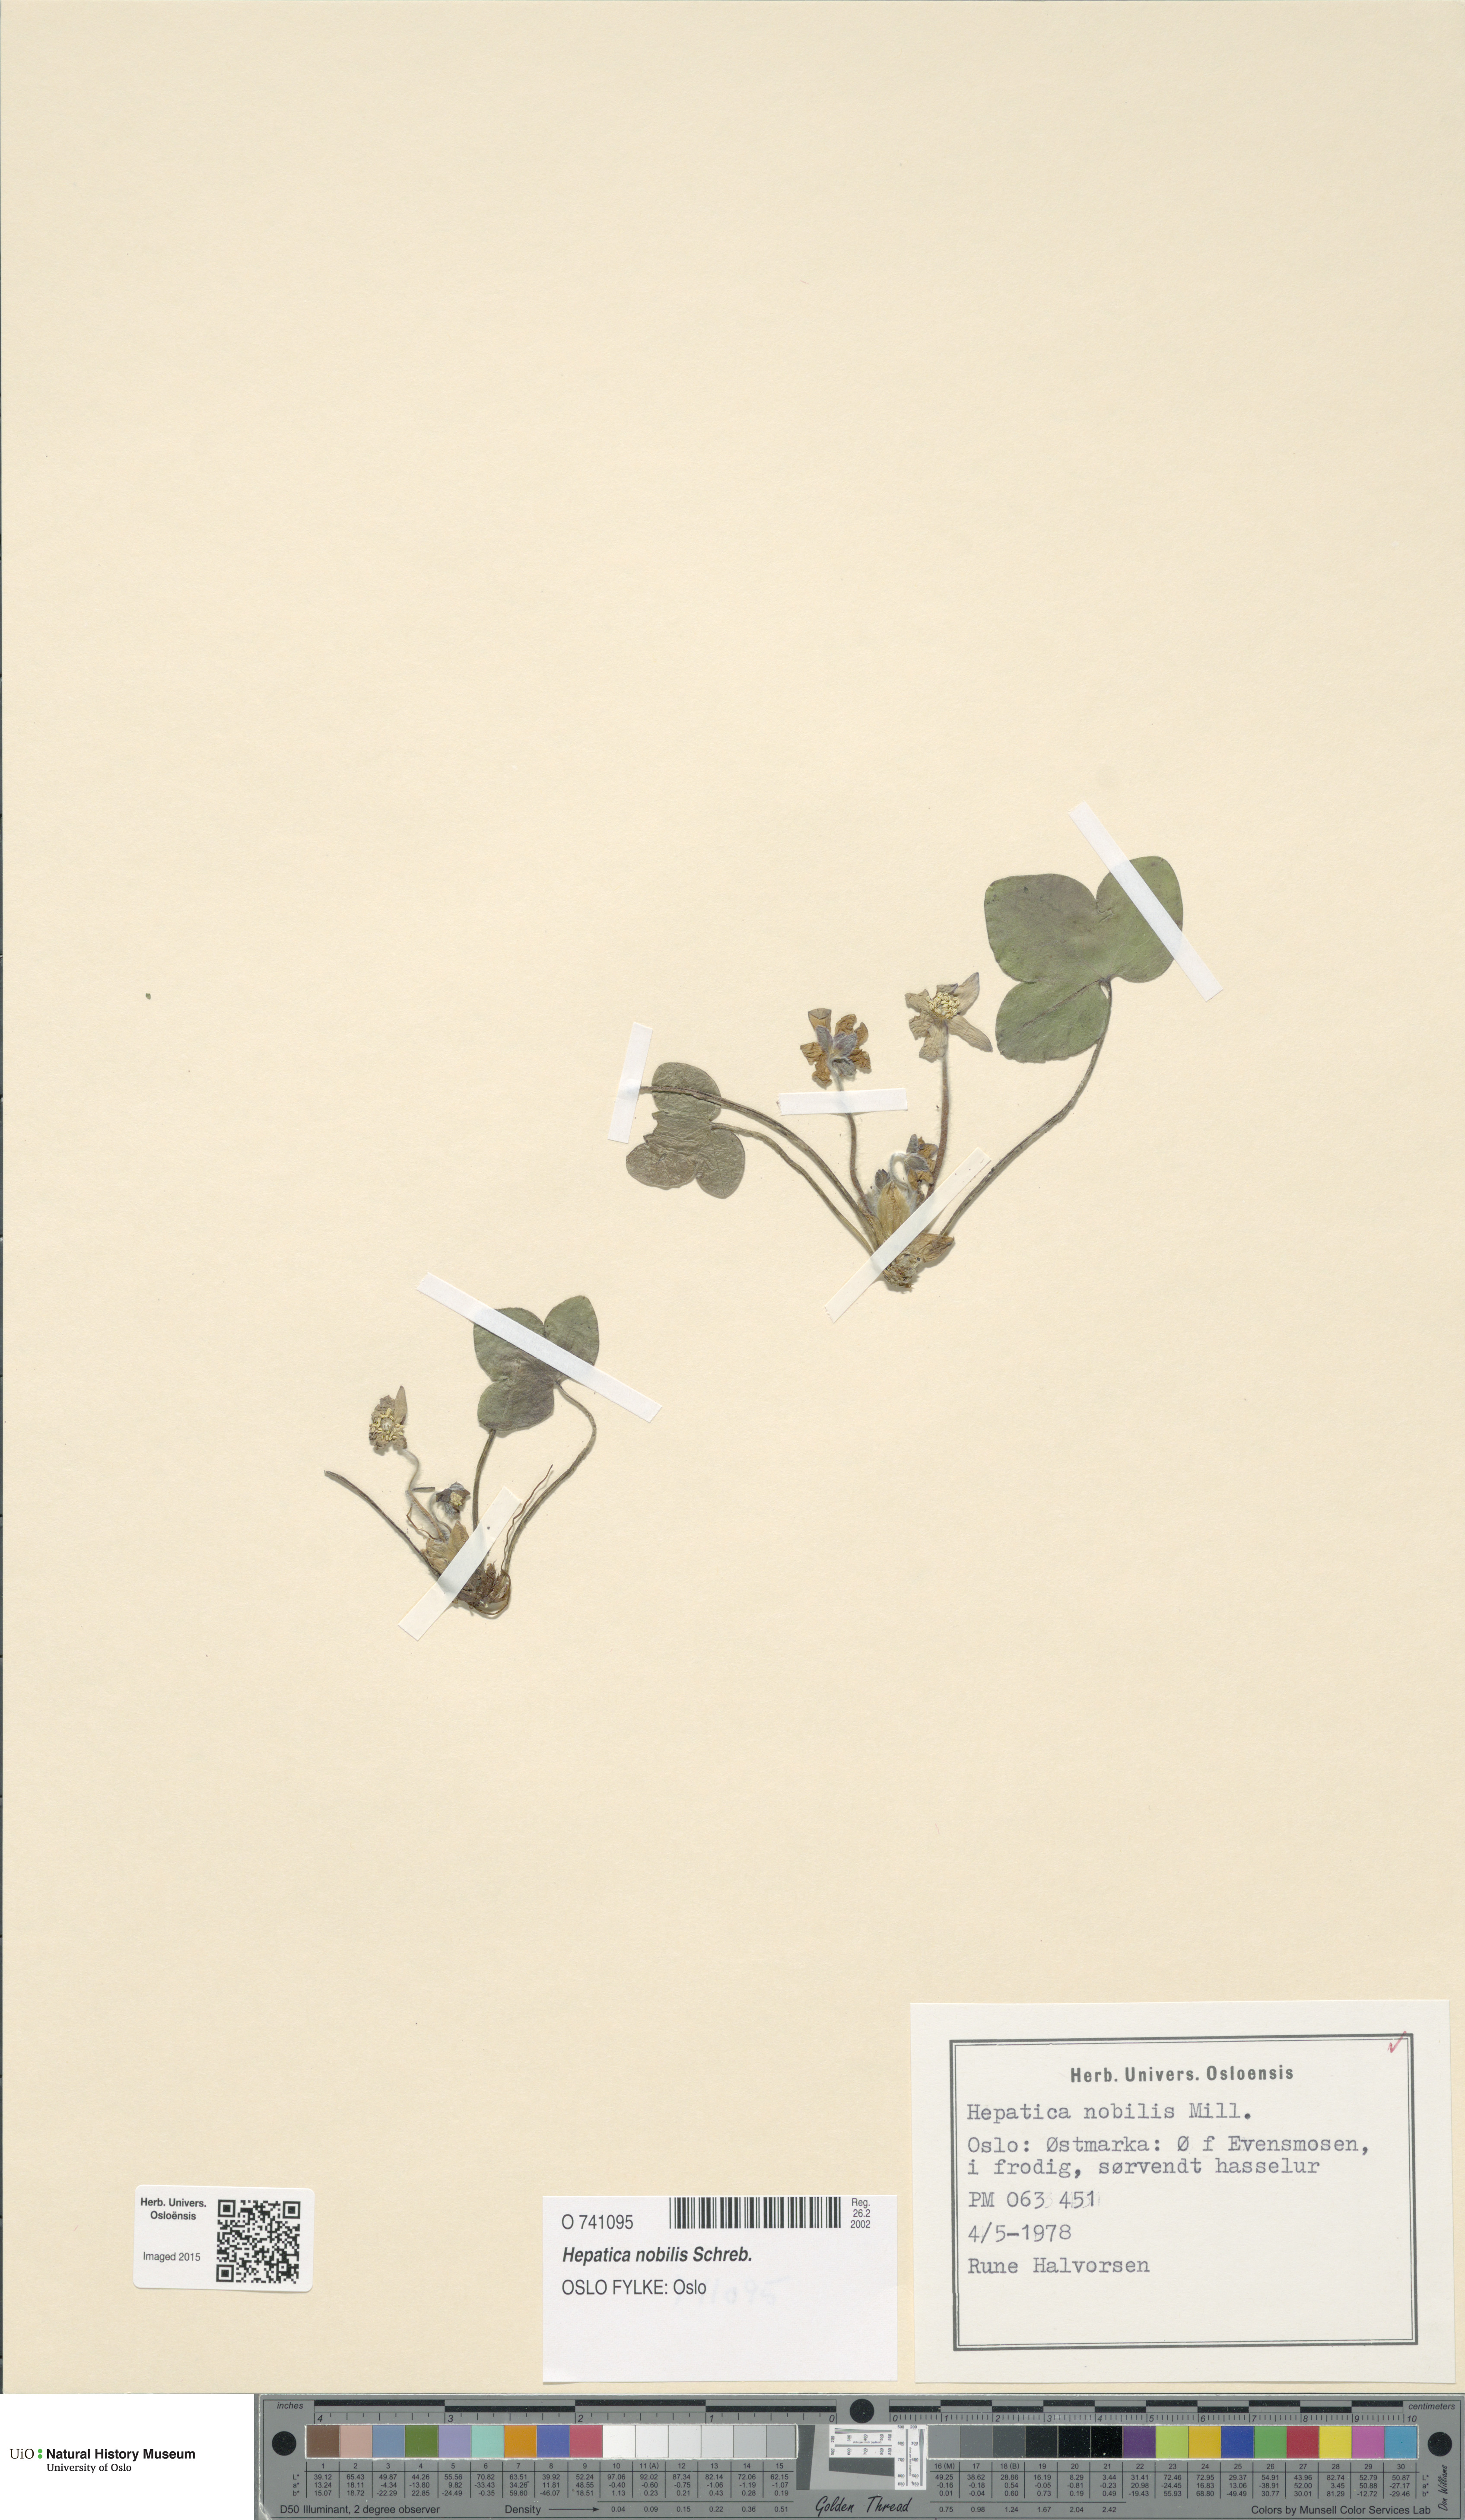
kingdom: Plantae
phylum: Tracheophyta
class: Magnoliopsida
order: Ranunculales
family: Ranunculaceae
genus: Hepatica
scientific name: Hepatica nobilis
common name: Liverleaf
